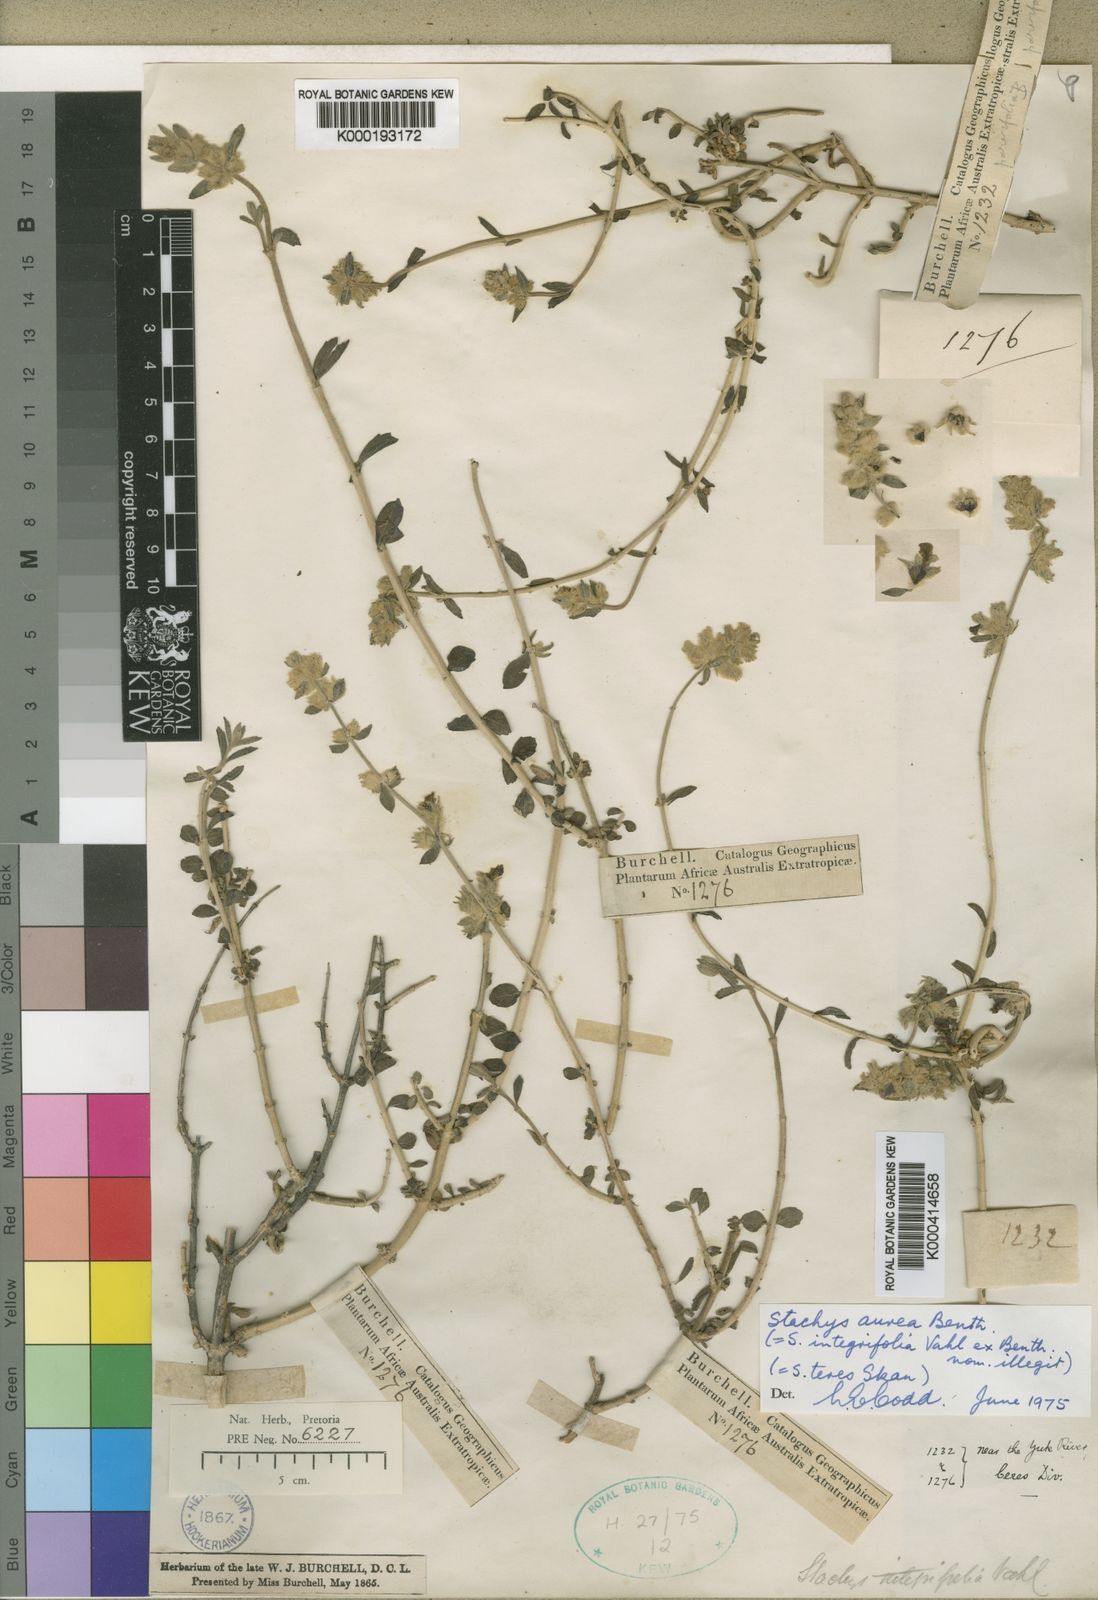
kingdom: Plantae
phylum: Tracheophyta
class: Magnoliopsida
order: Lamiales
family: Lamiaceae
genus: Stachys
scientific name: Stachys aurea
